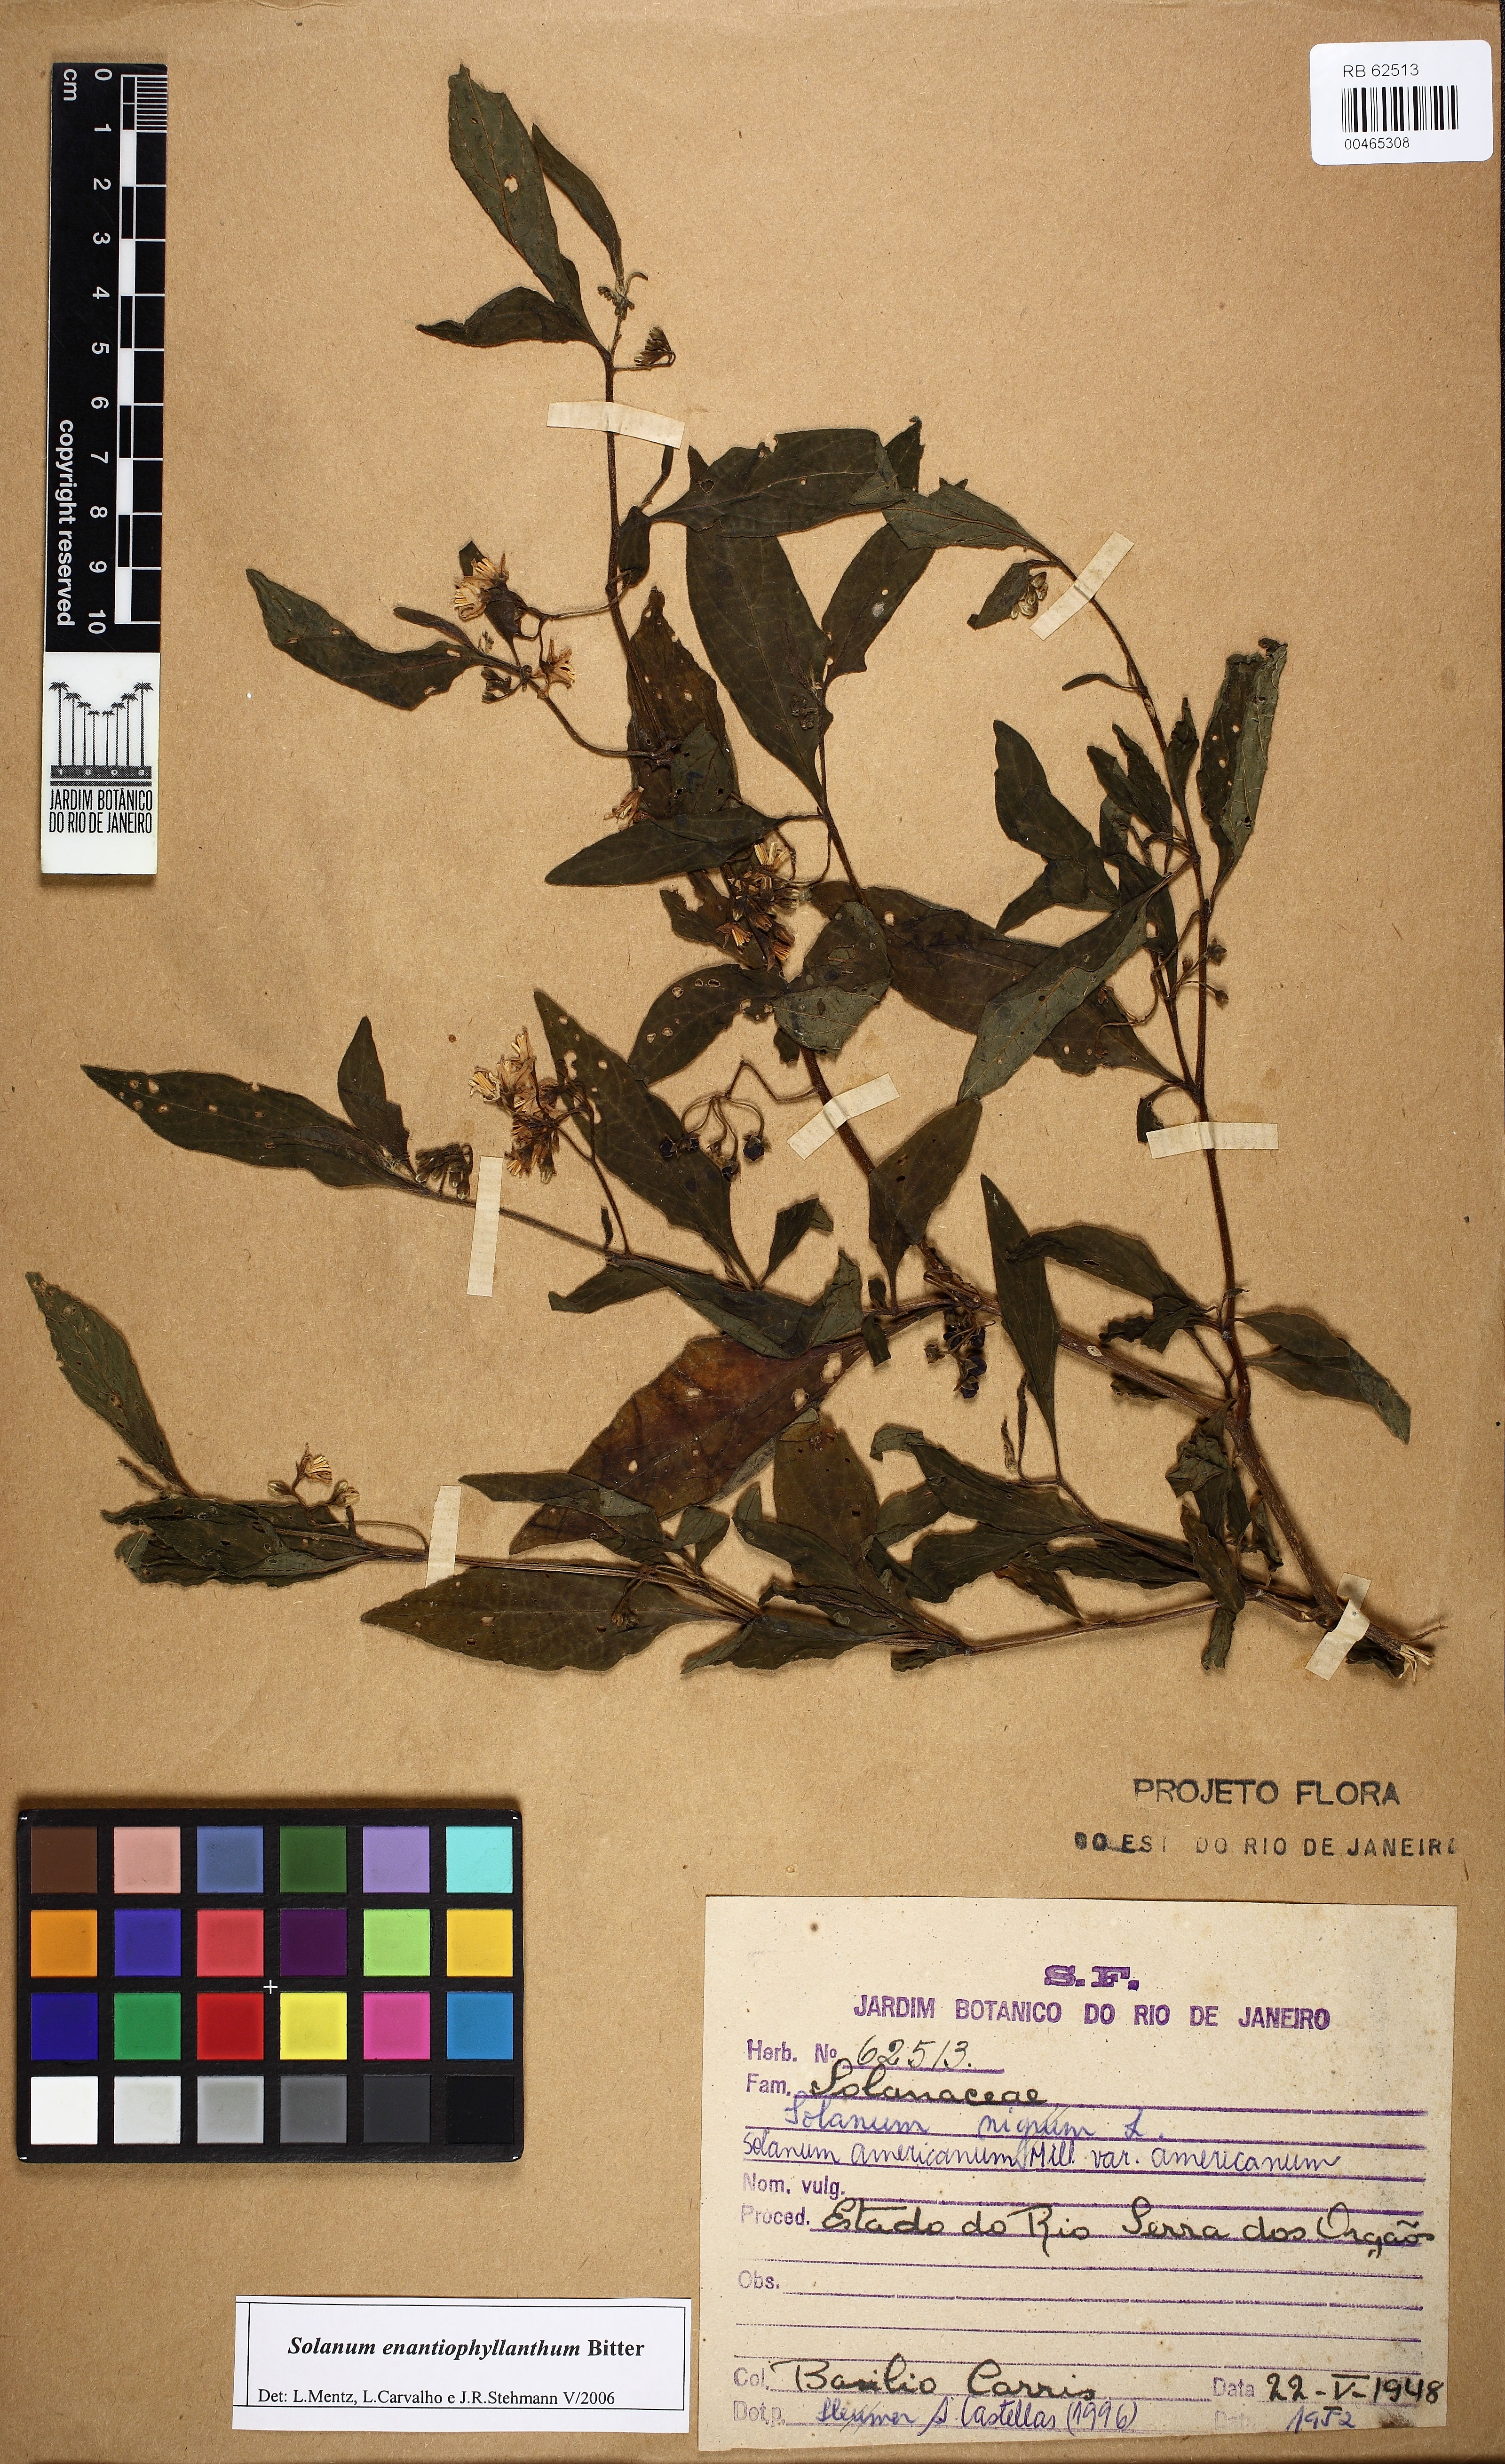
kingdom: Plantae
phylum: Tracheophyta
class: Magnoliopsida
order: Solanales
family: Solanaceae
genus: Solanum
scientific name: Solanum enantiophyllanthum
